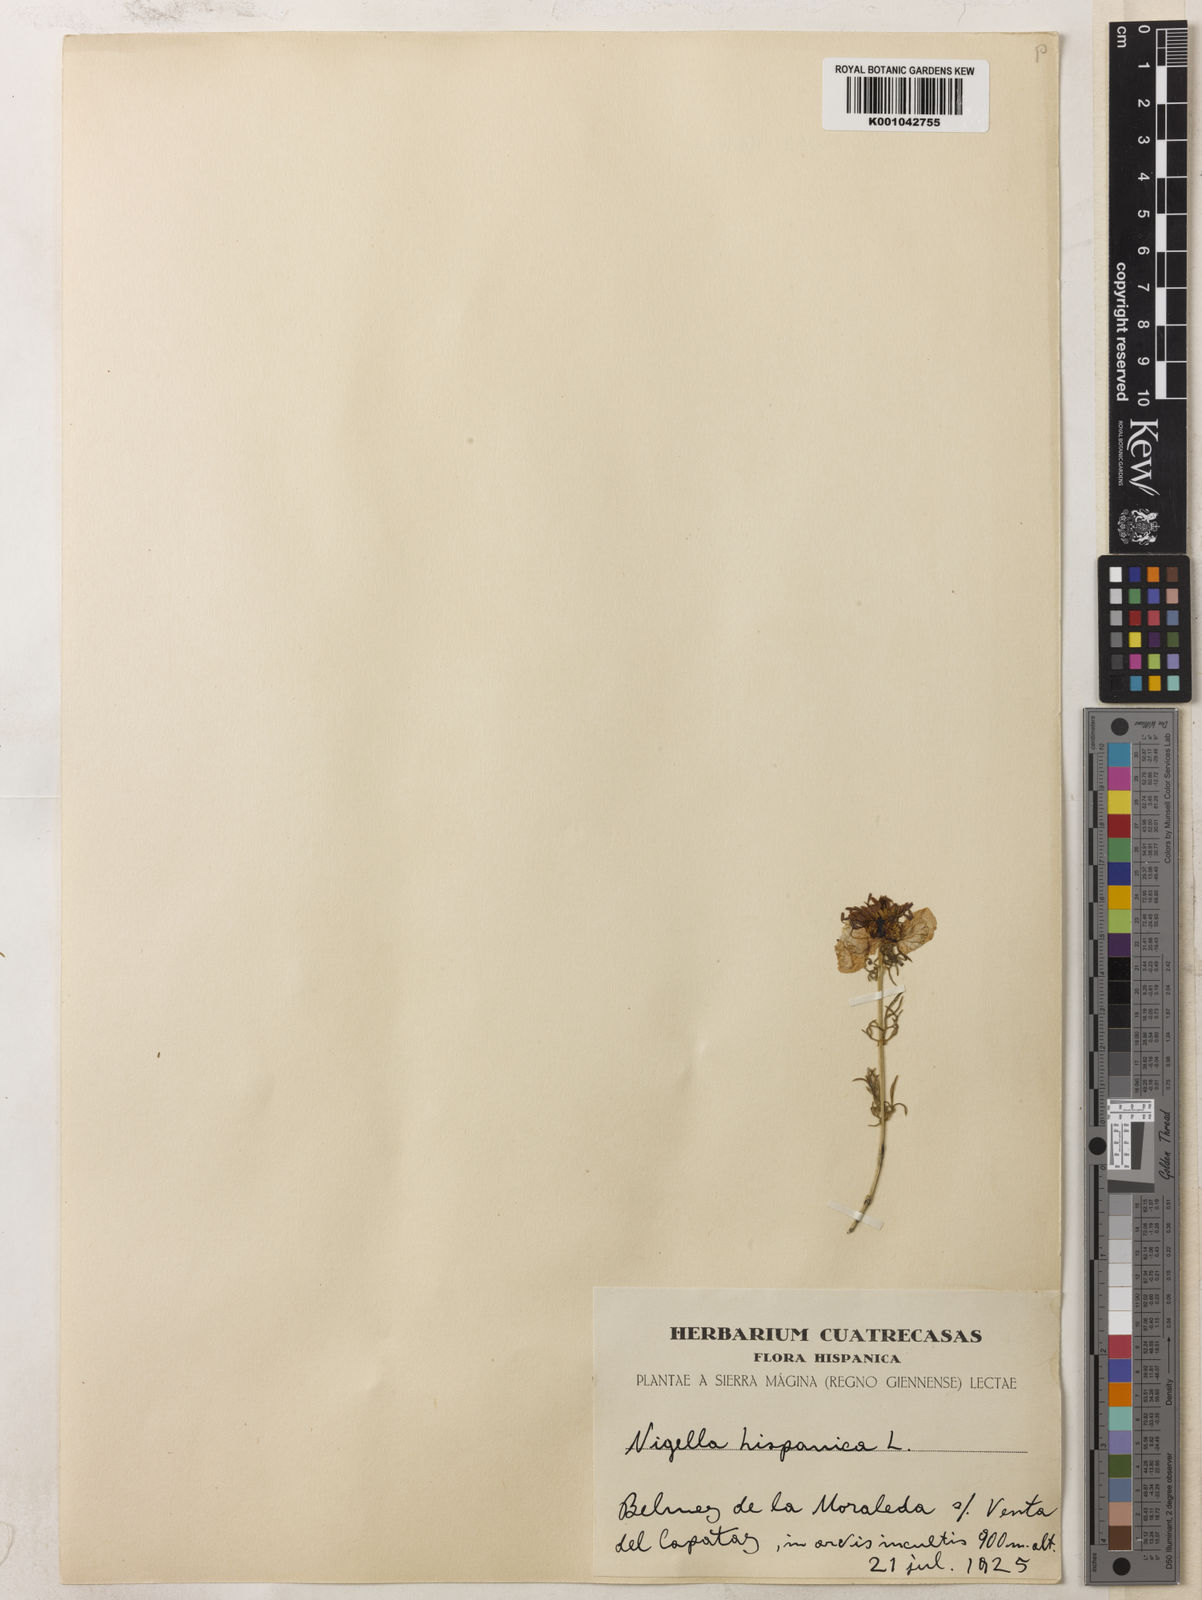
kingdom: Plantae
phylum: Tracheophyta
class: Magnoliopsida
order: Ranunculales
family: Ranunculaceae
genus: Nigella
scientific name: Nigella hispanica
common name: Fennel-flower
